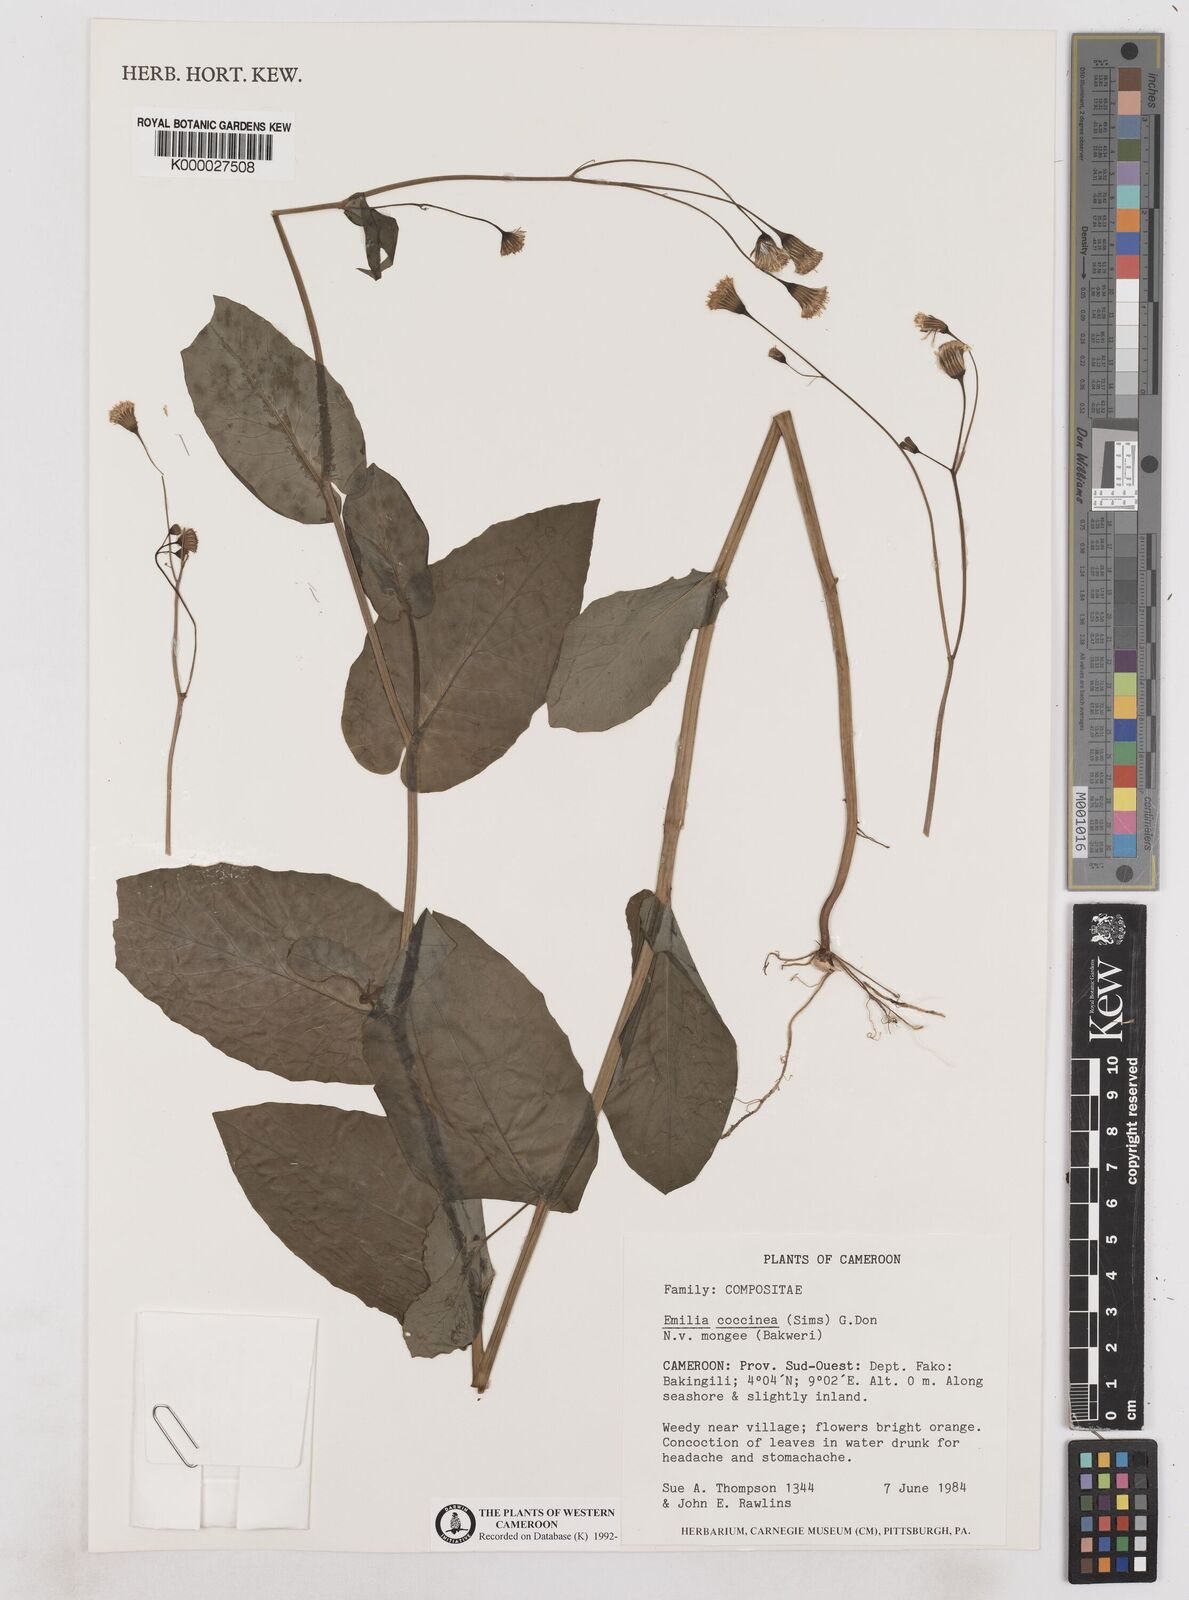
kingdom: Plantae
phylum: Tracheophyta
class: Magnoliopsida
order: Asterales
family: Asteraceae
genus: Emilia
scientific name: Emilia lisowskiana
